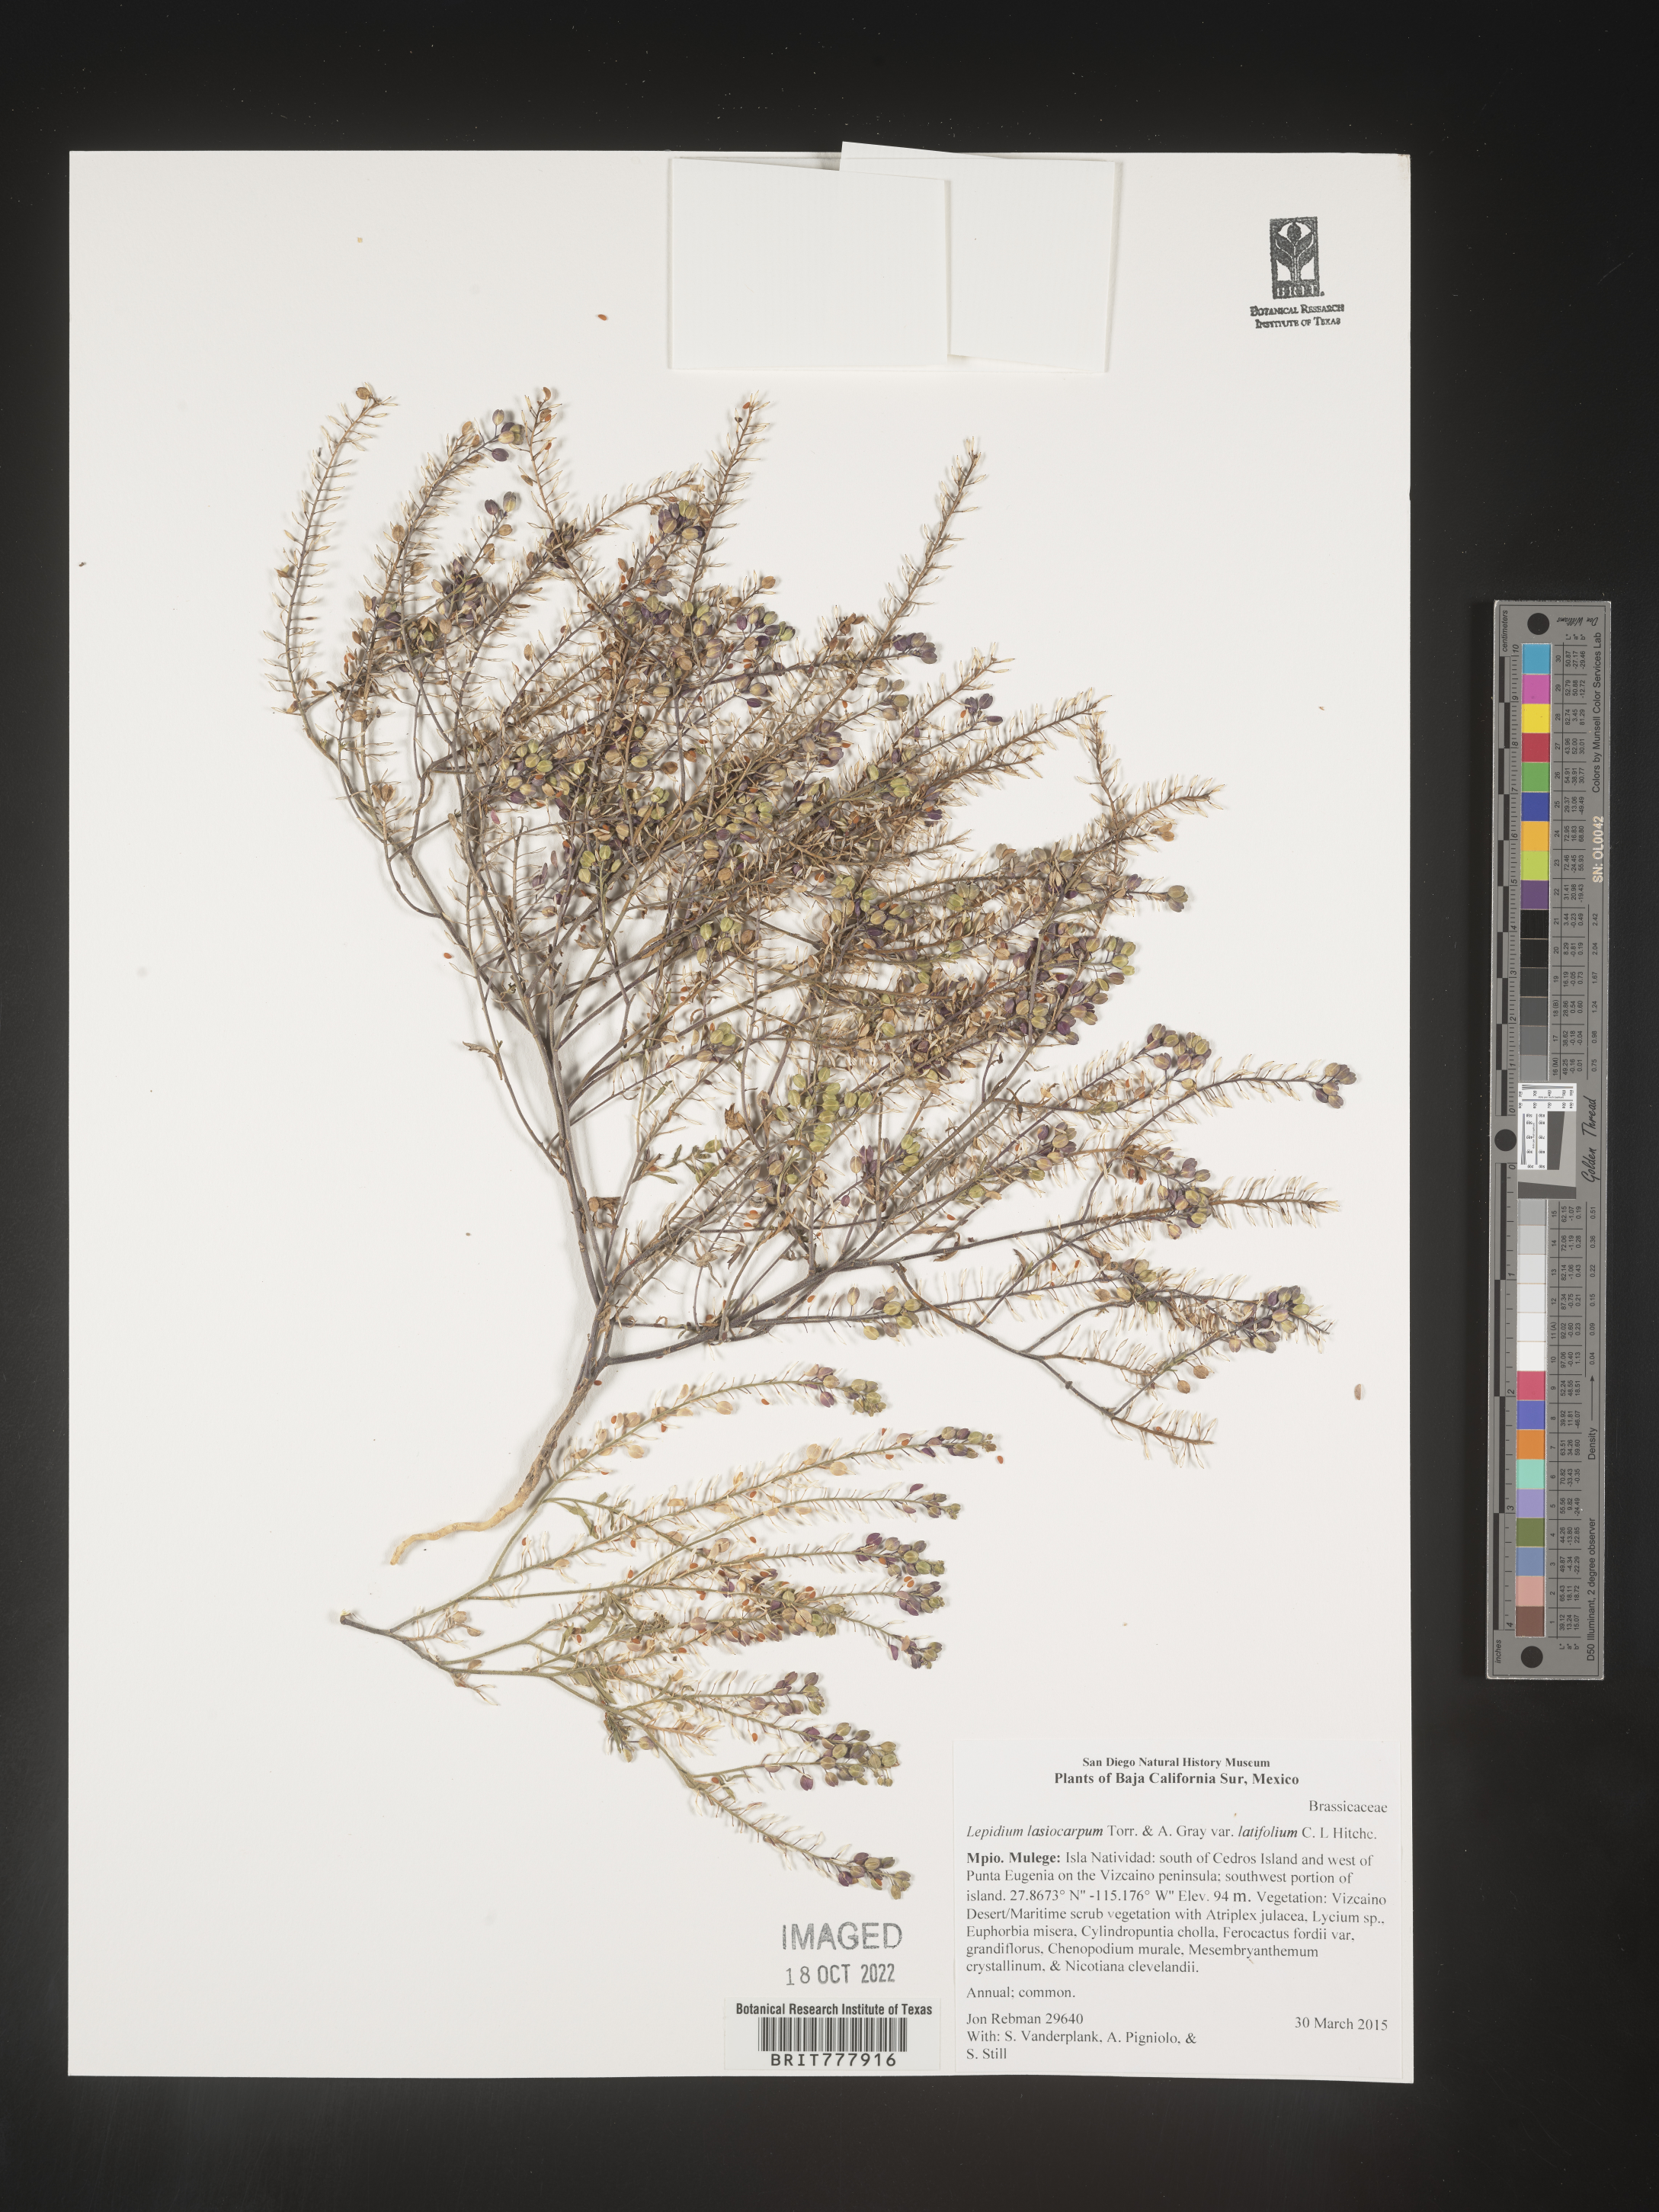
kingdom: Plantae
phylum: Tracheophyta
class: Magnoliopsida
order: Brassicales
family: Brassicaceae
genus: Lepidium
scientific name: Lepidium
